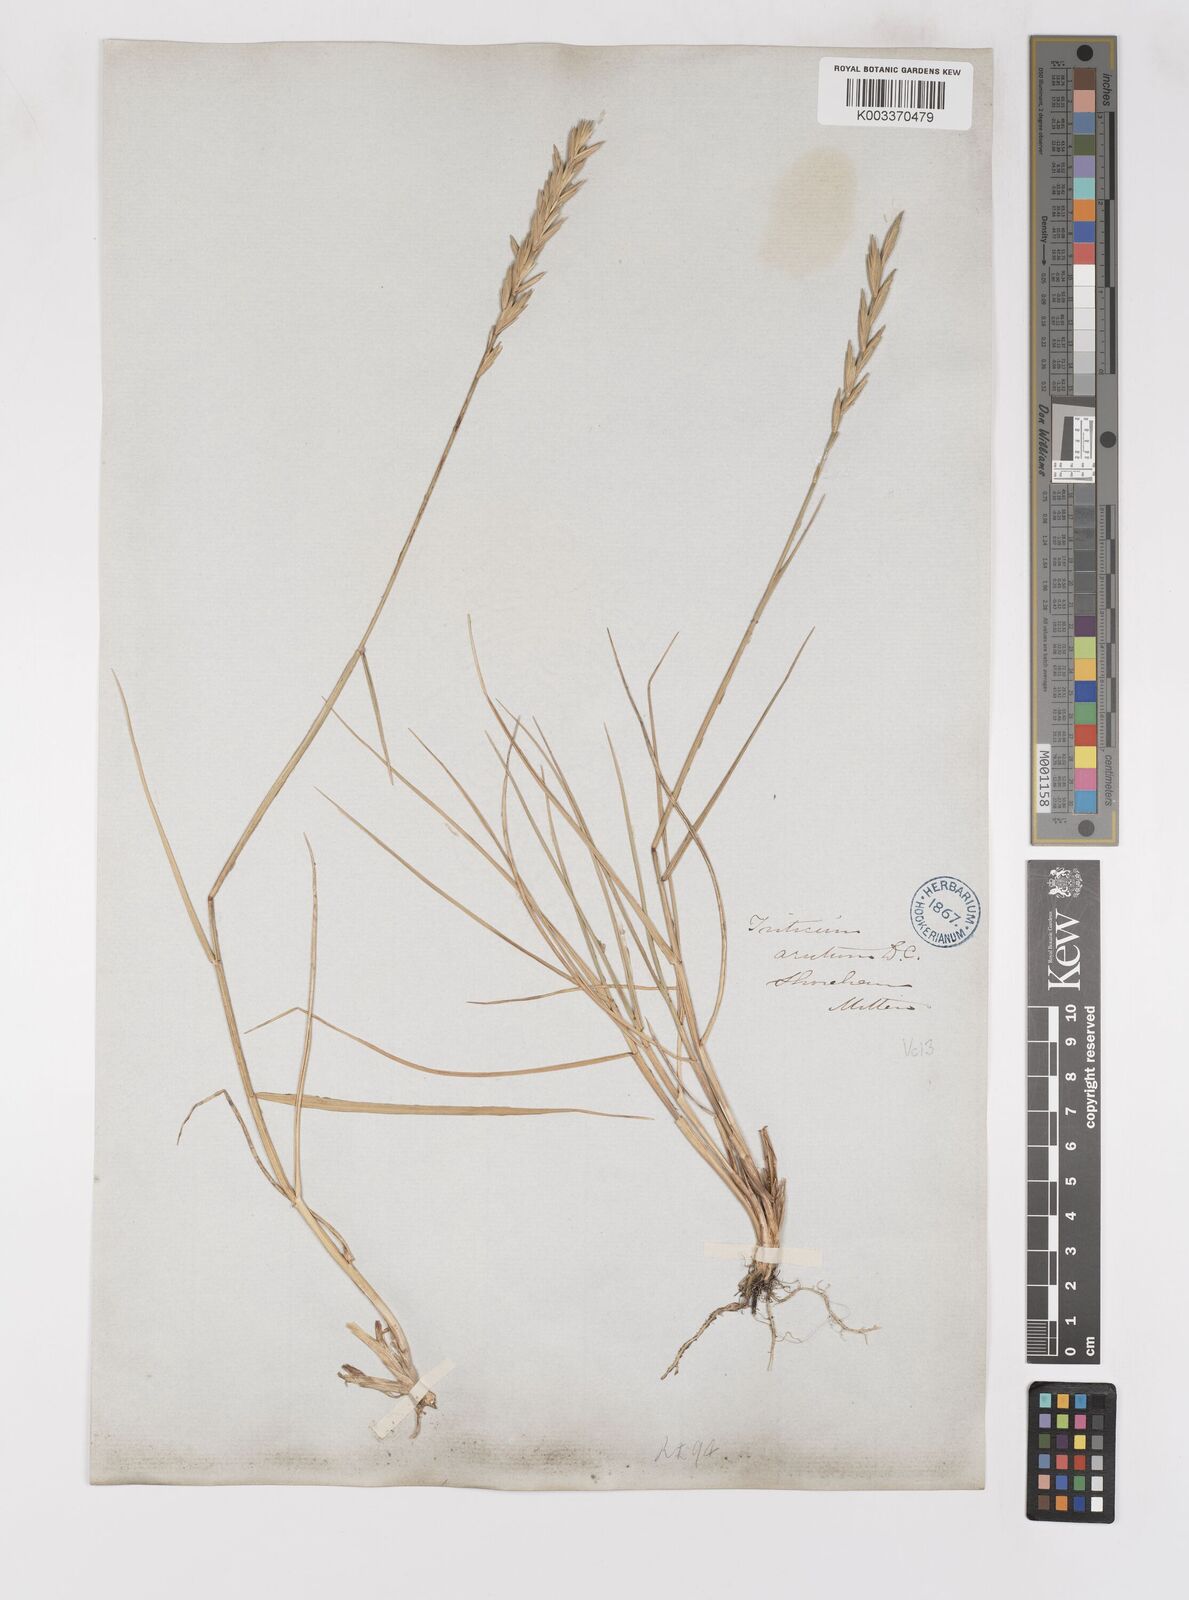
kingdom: Plantae
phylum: Tracheophyta
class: Liliopsida
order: Poales
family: Poaceae
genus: Thinoelymus
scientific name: Thinoelymus obtusiusculus
